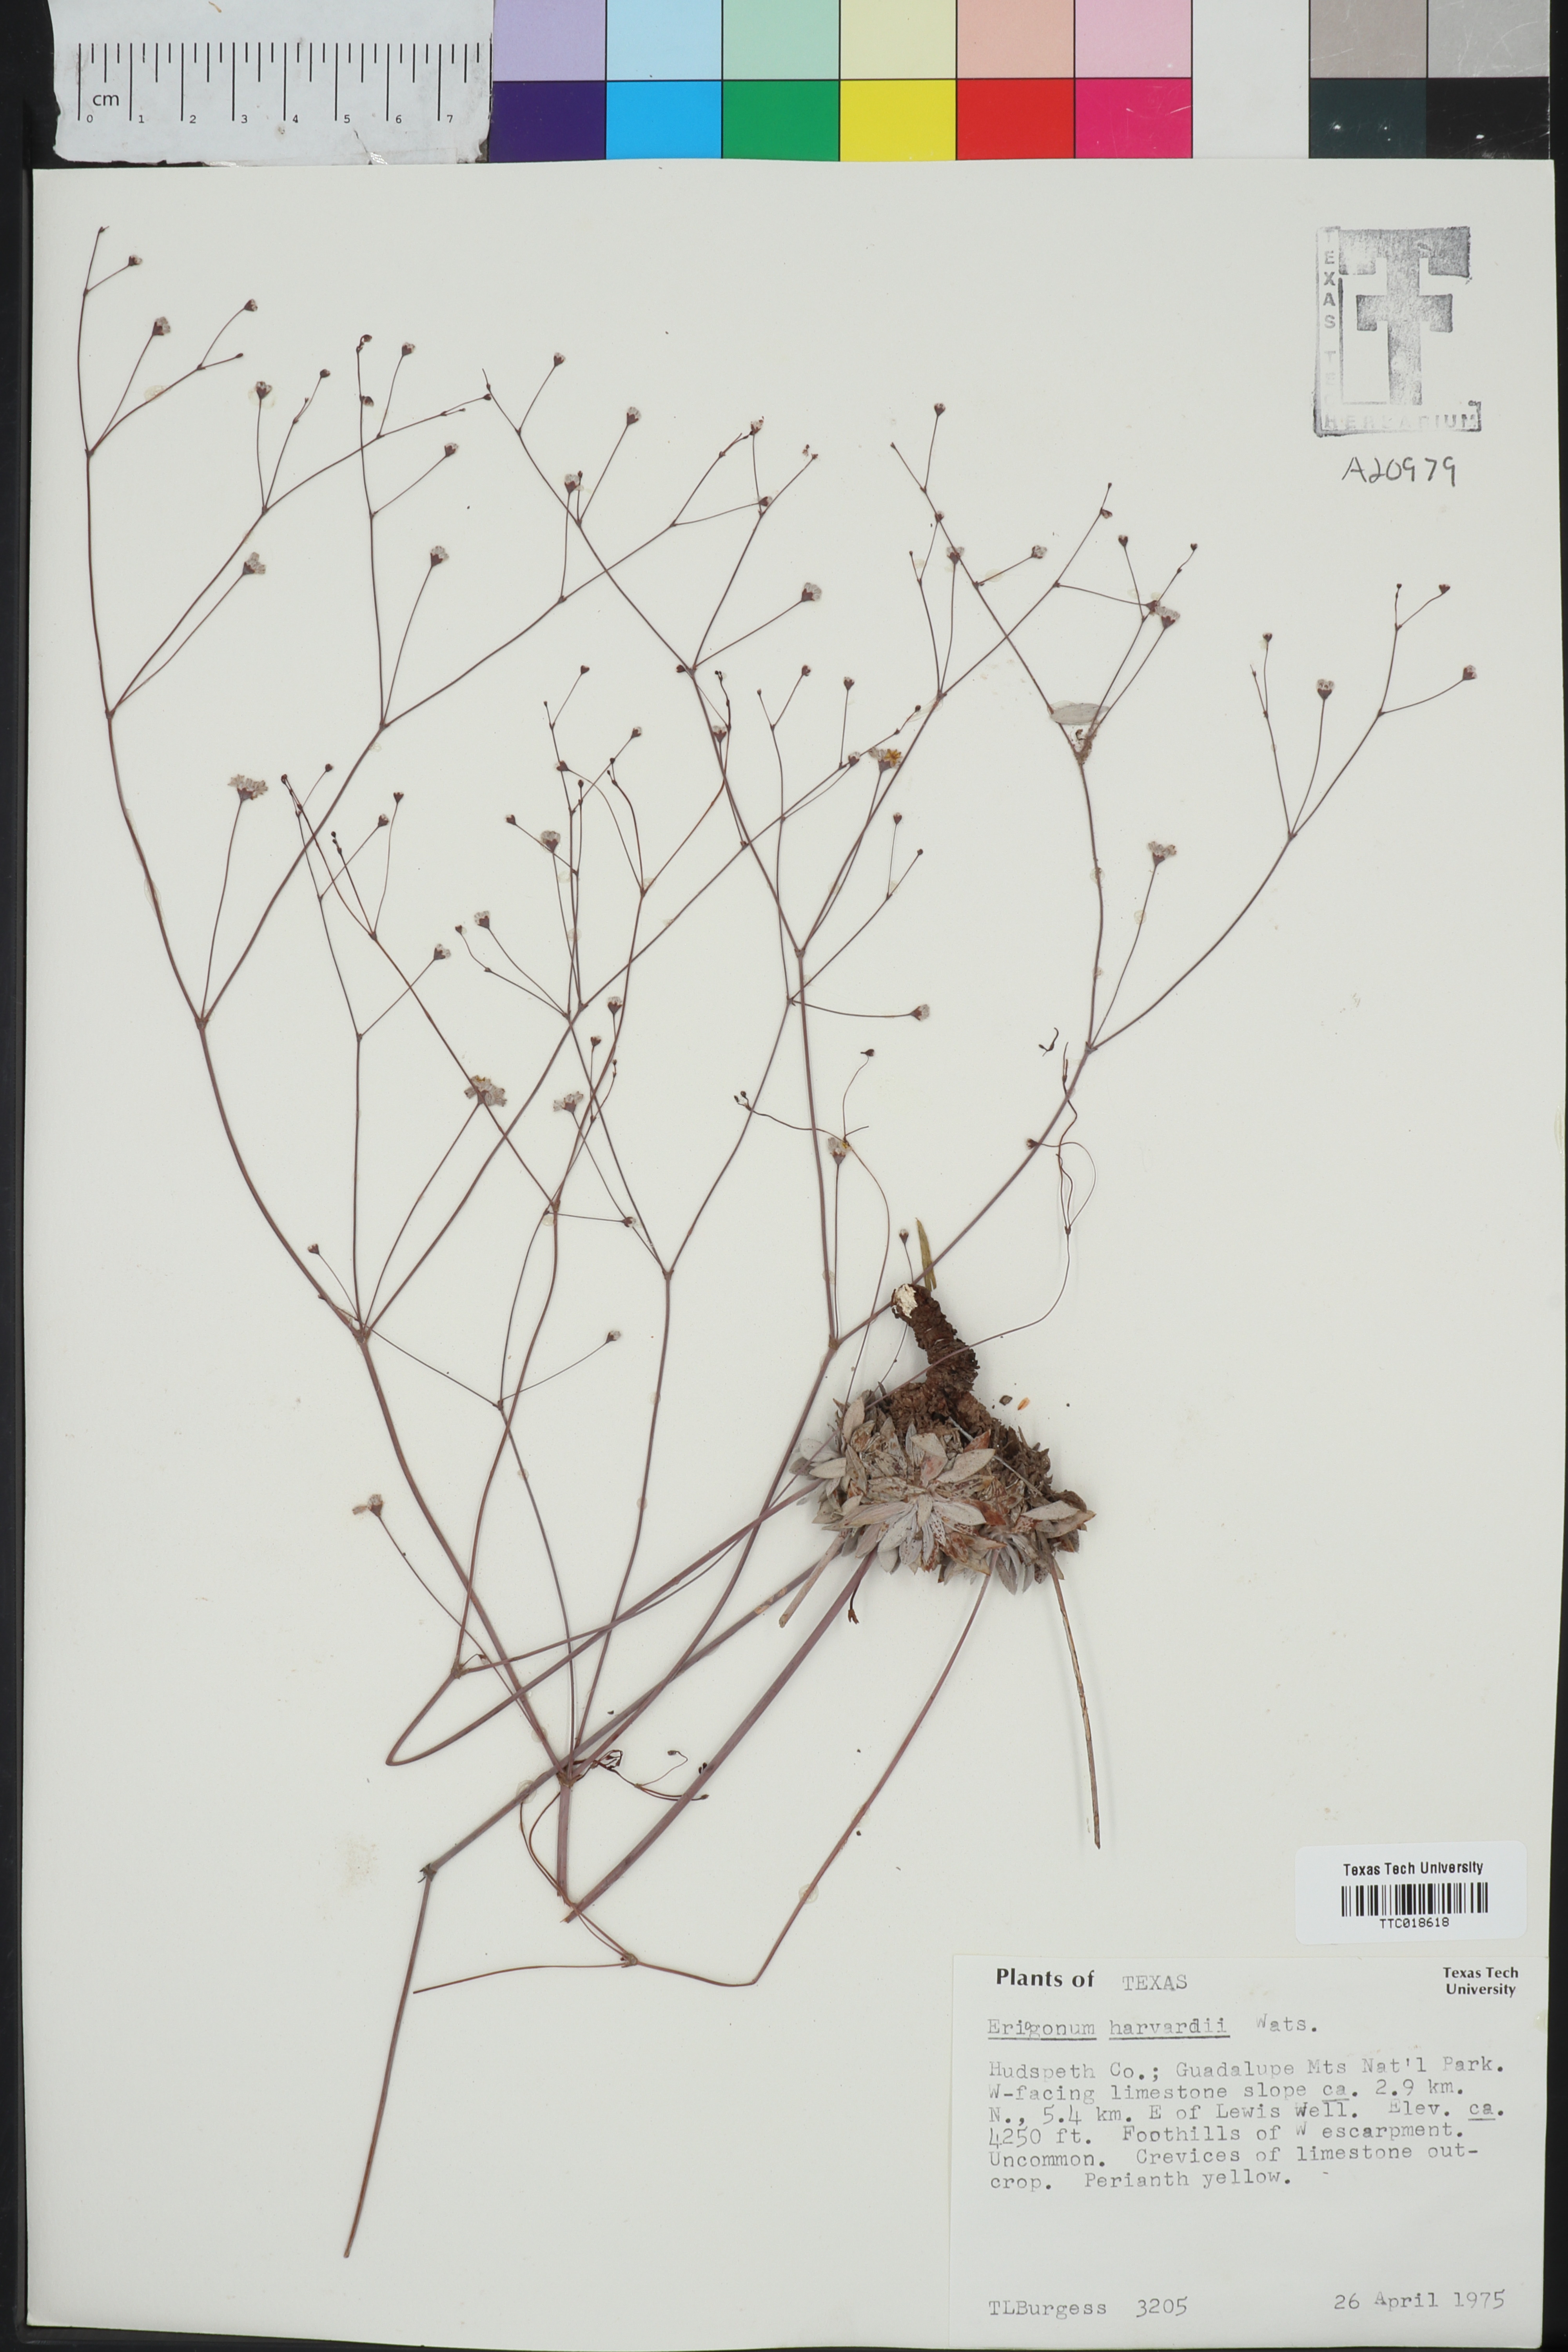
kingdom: Plantae
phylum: Tracheophyta
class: Magnoliopsida
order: Caryophyllales
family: Polygonaceae
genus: Eriogonum
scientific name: Eriogonum havardii
